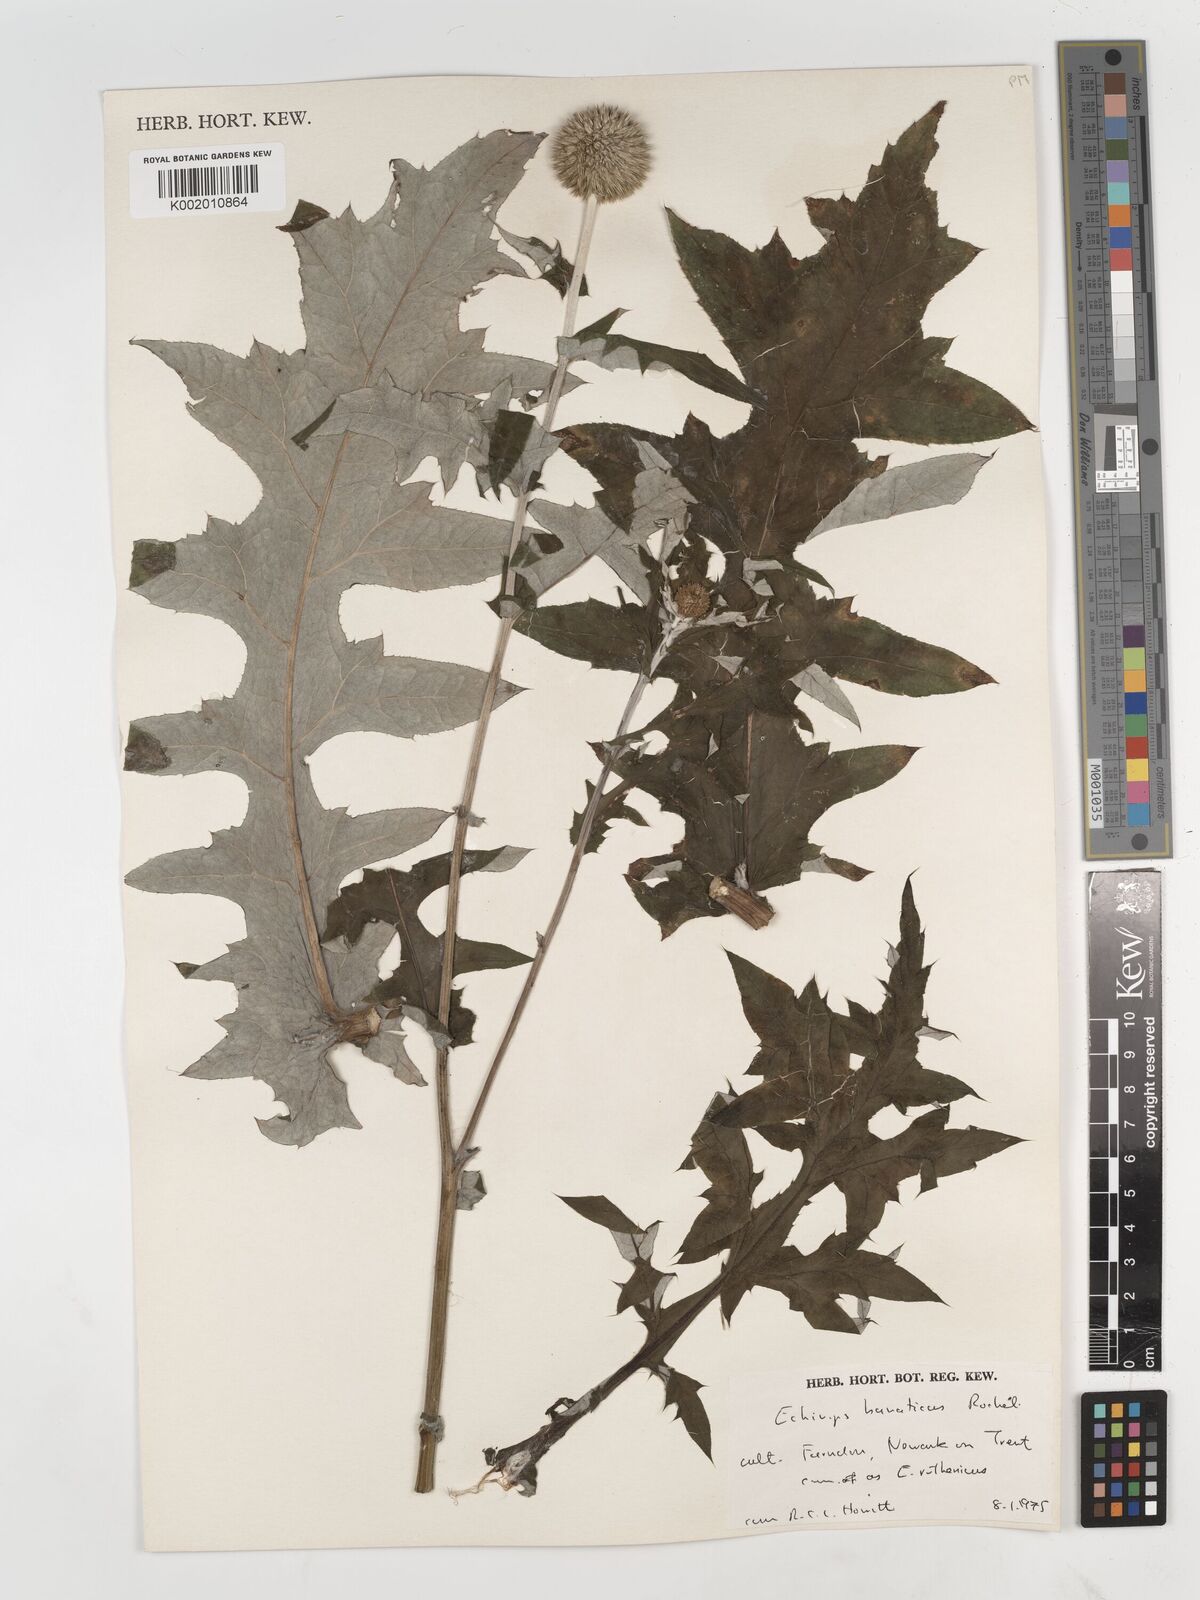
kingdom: Plantae
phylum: Tracheophyta
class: Magnoliopsida
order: Asterales
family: Asteraceae
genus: Echinops
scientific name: Echinops bannaticus
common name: Blue globe-thistle
